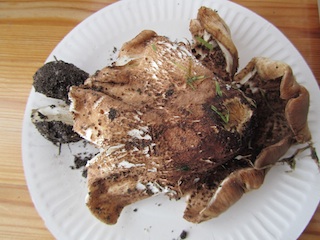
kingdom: Fungi
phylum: Basidiomycota
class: Agaricomycetes
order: Agaricales
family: Agaricaceae
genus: Echinoderma
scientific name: Echinoderma asperum
